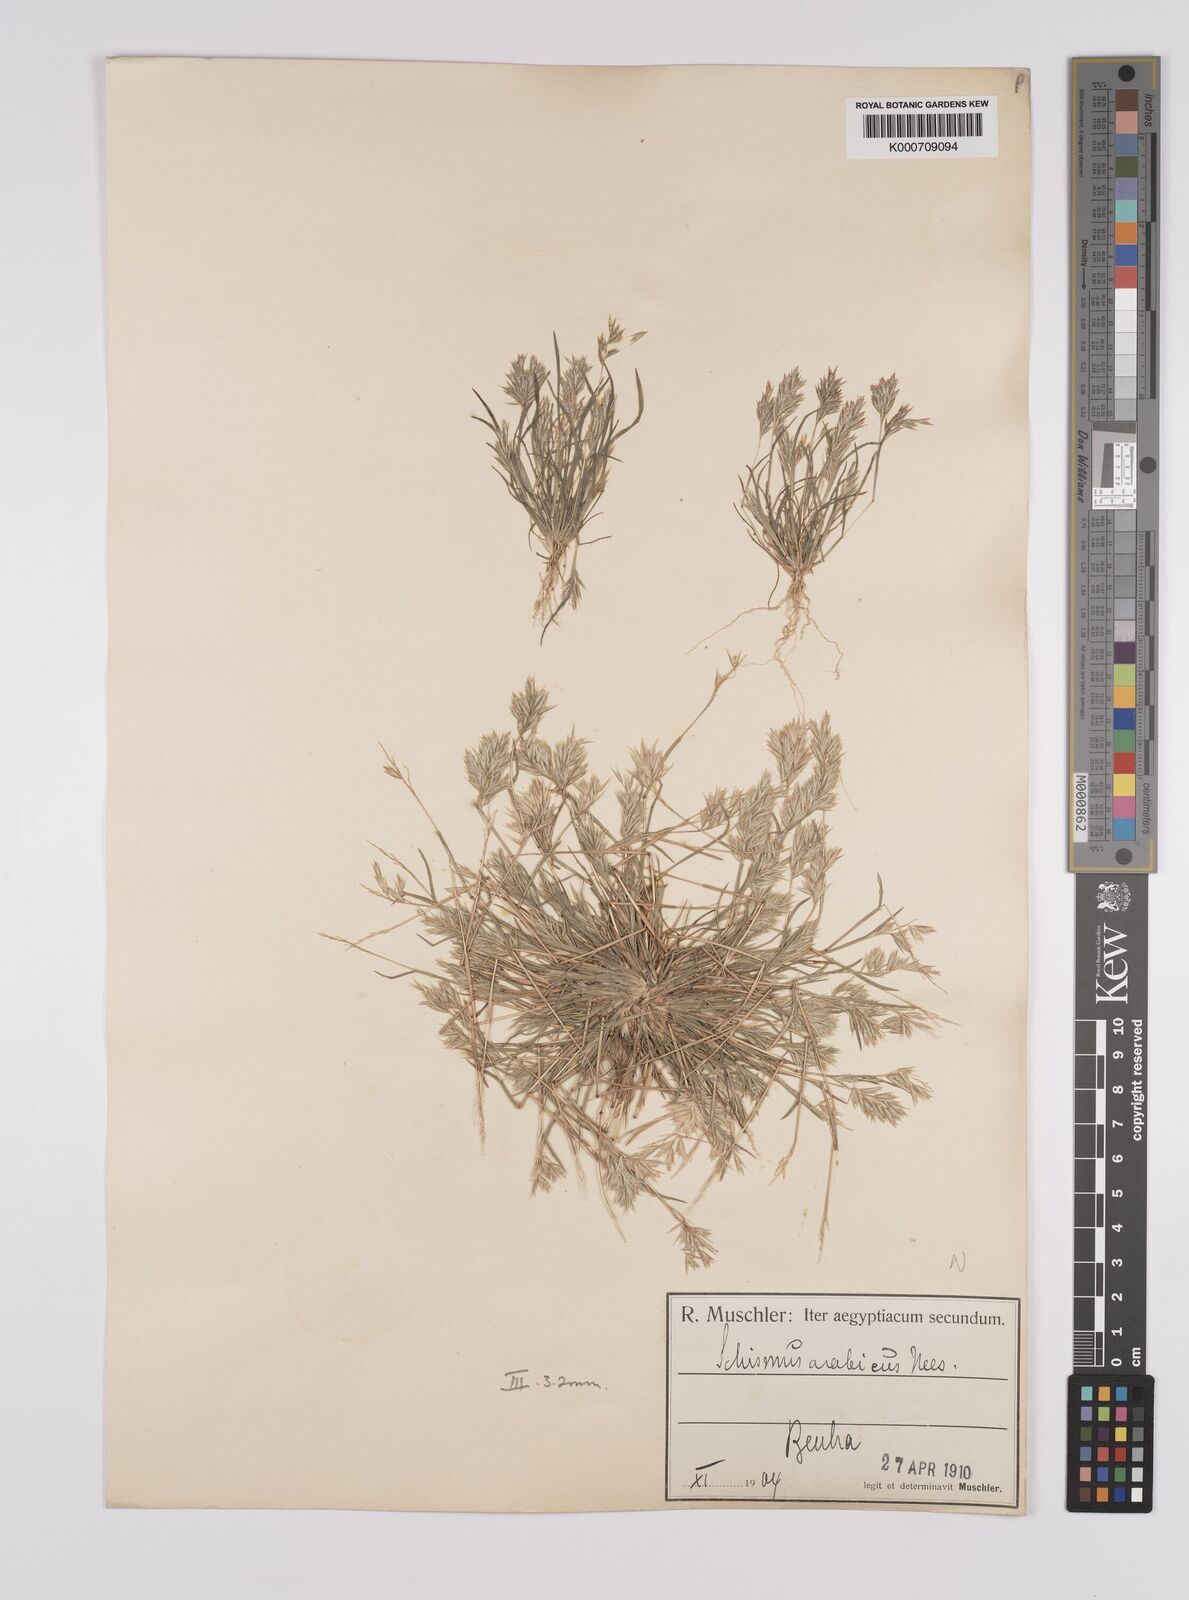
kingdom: Plantae
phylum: Tracheophyta
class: Liliopsida
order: Poales
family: Poaceae
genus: Schismus
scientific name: Schismus arabicus
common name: Arabian schismus
